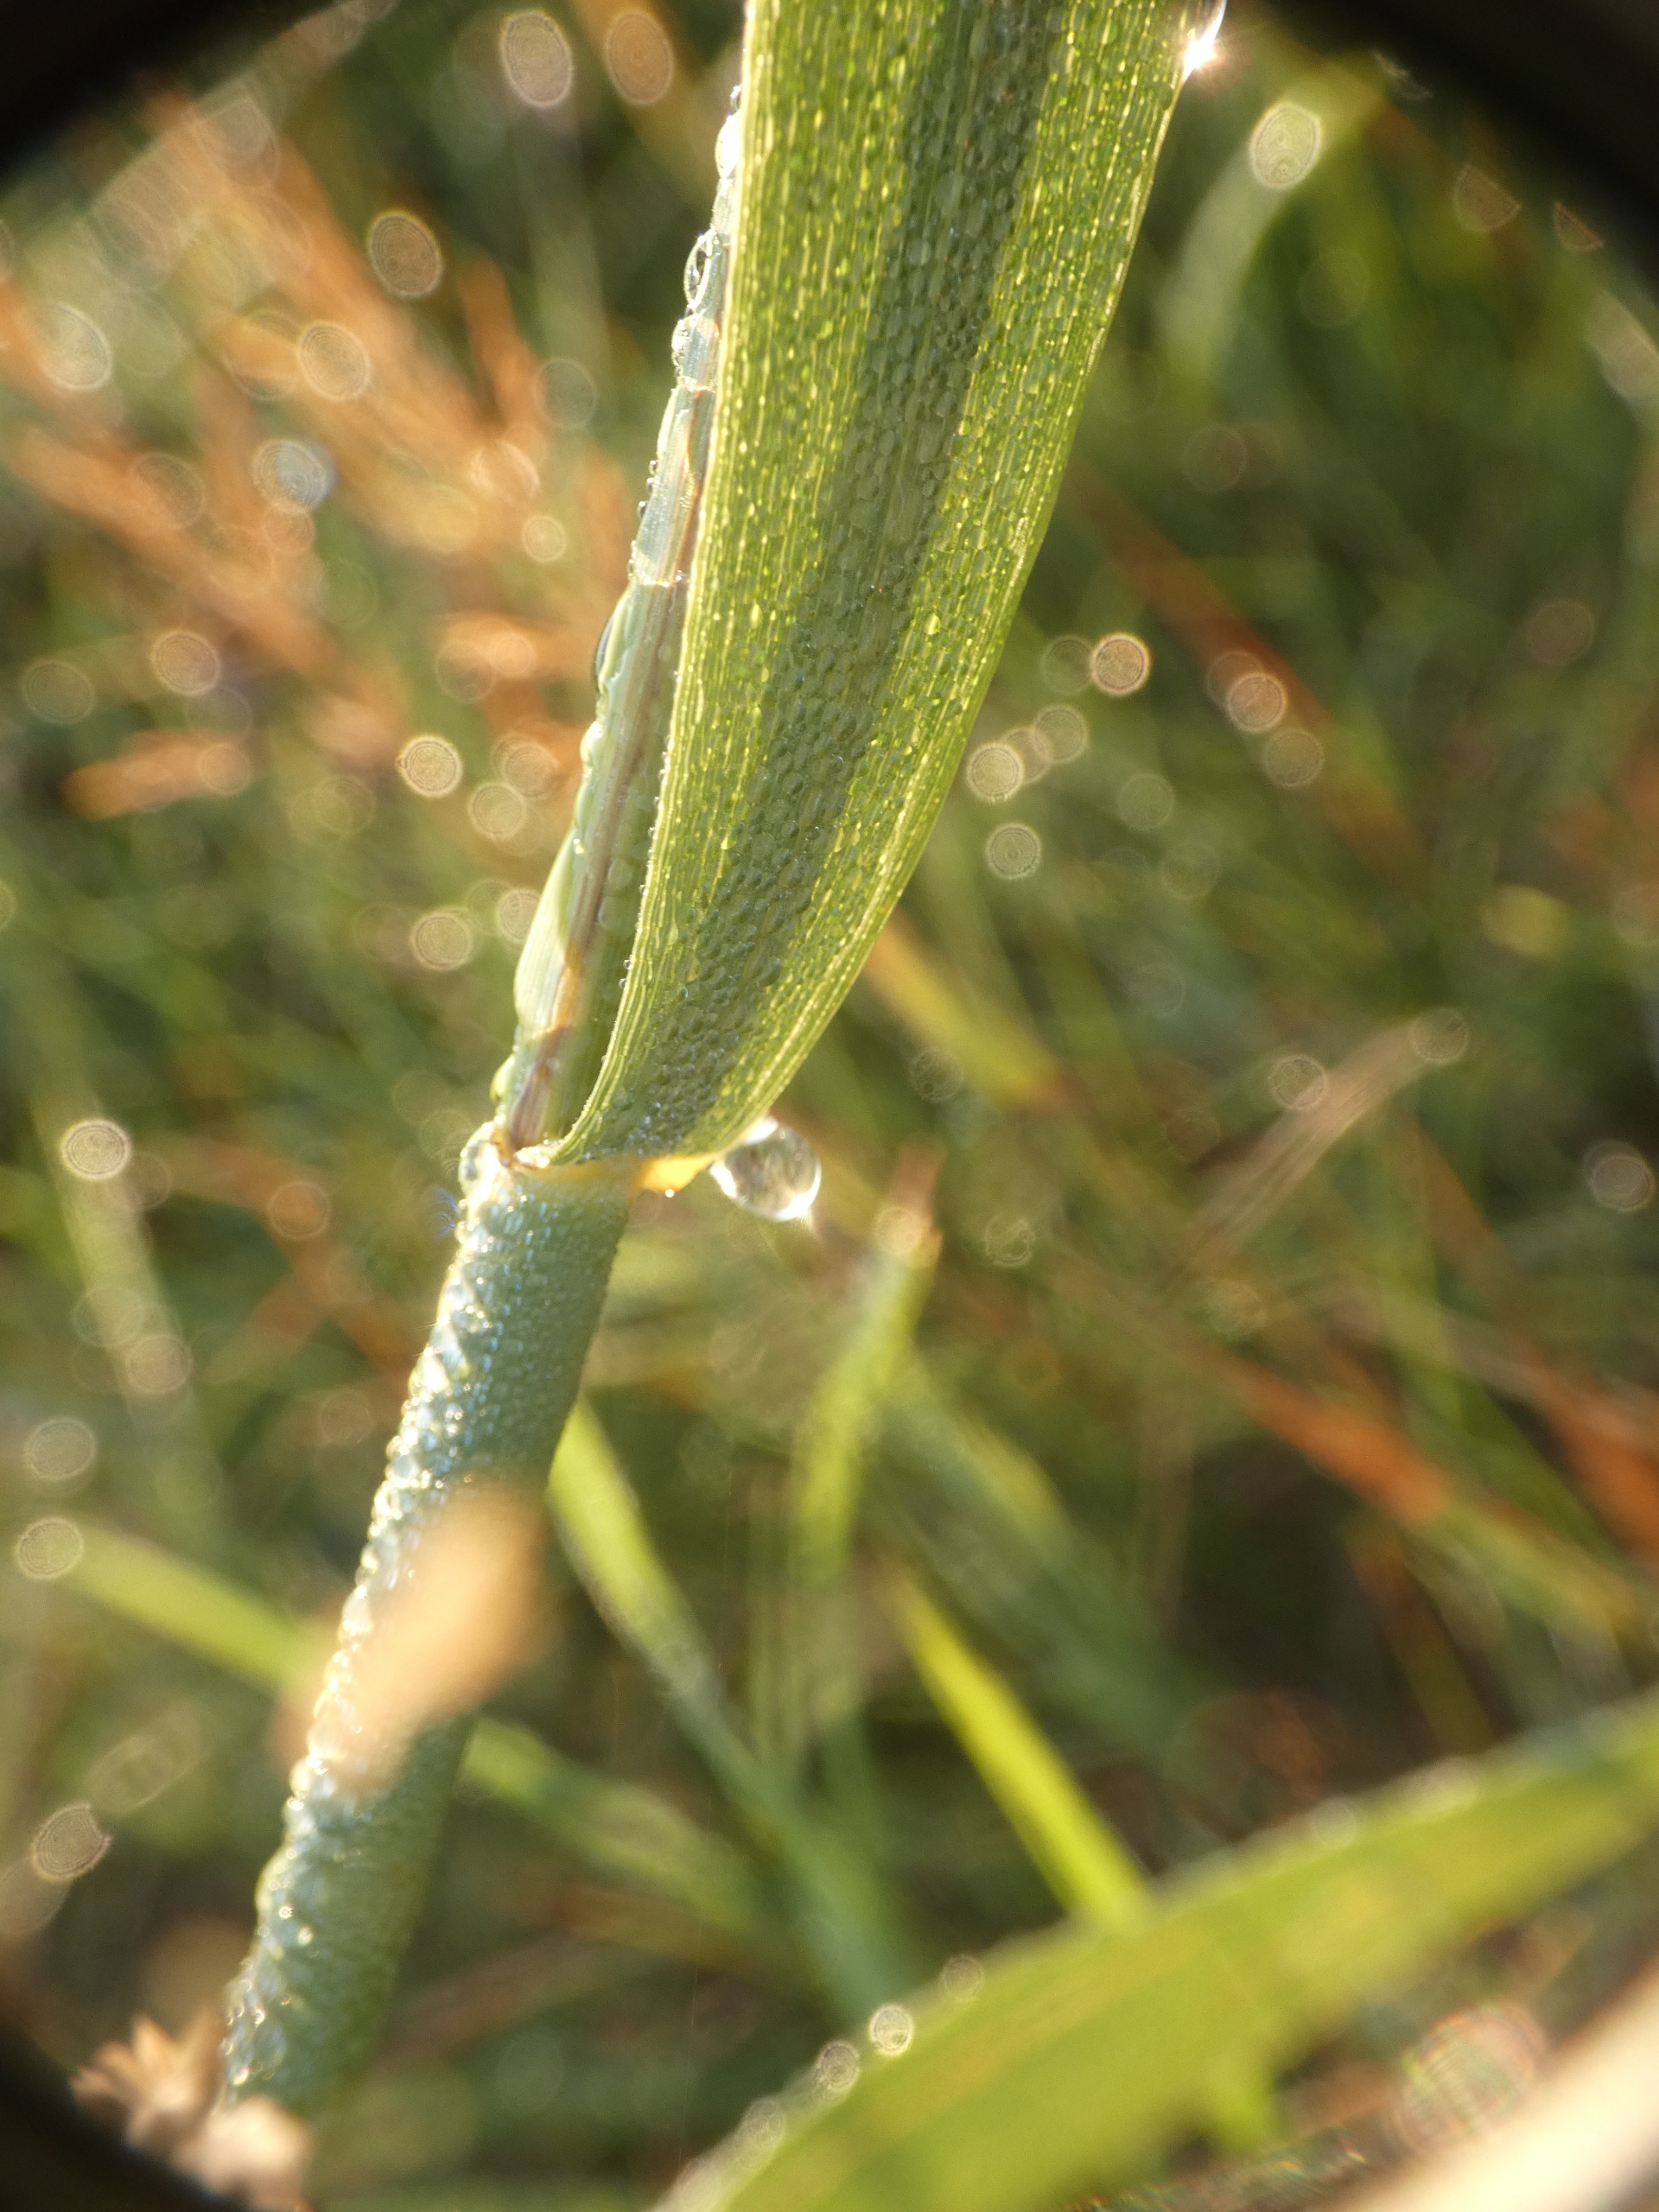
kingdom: Plantae
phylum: Tracheophyta
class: Liliopsida
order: Poales
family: Poaceae
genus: Phragmites
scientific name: Phragmites australis
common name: Tagrør
